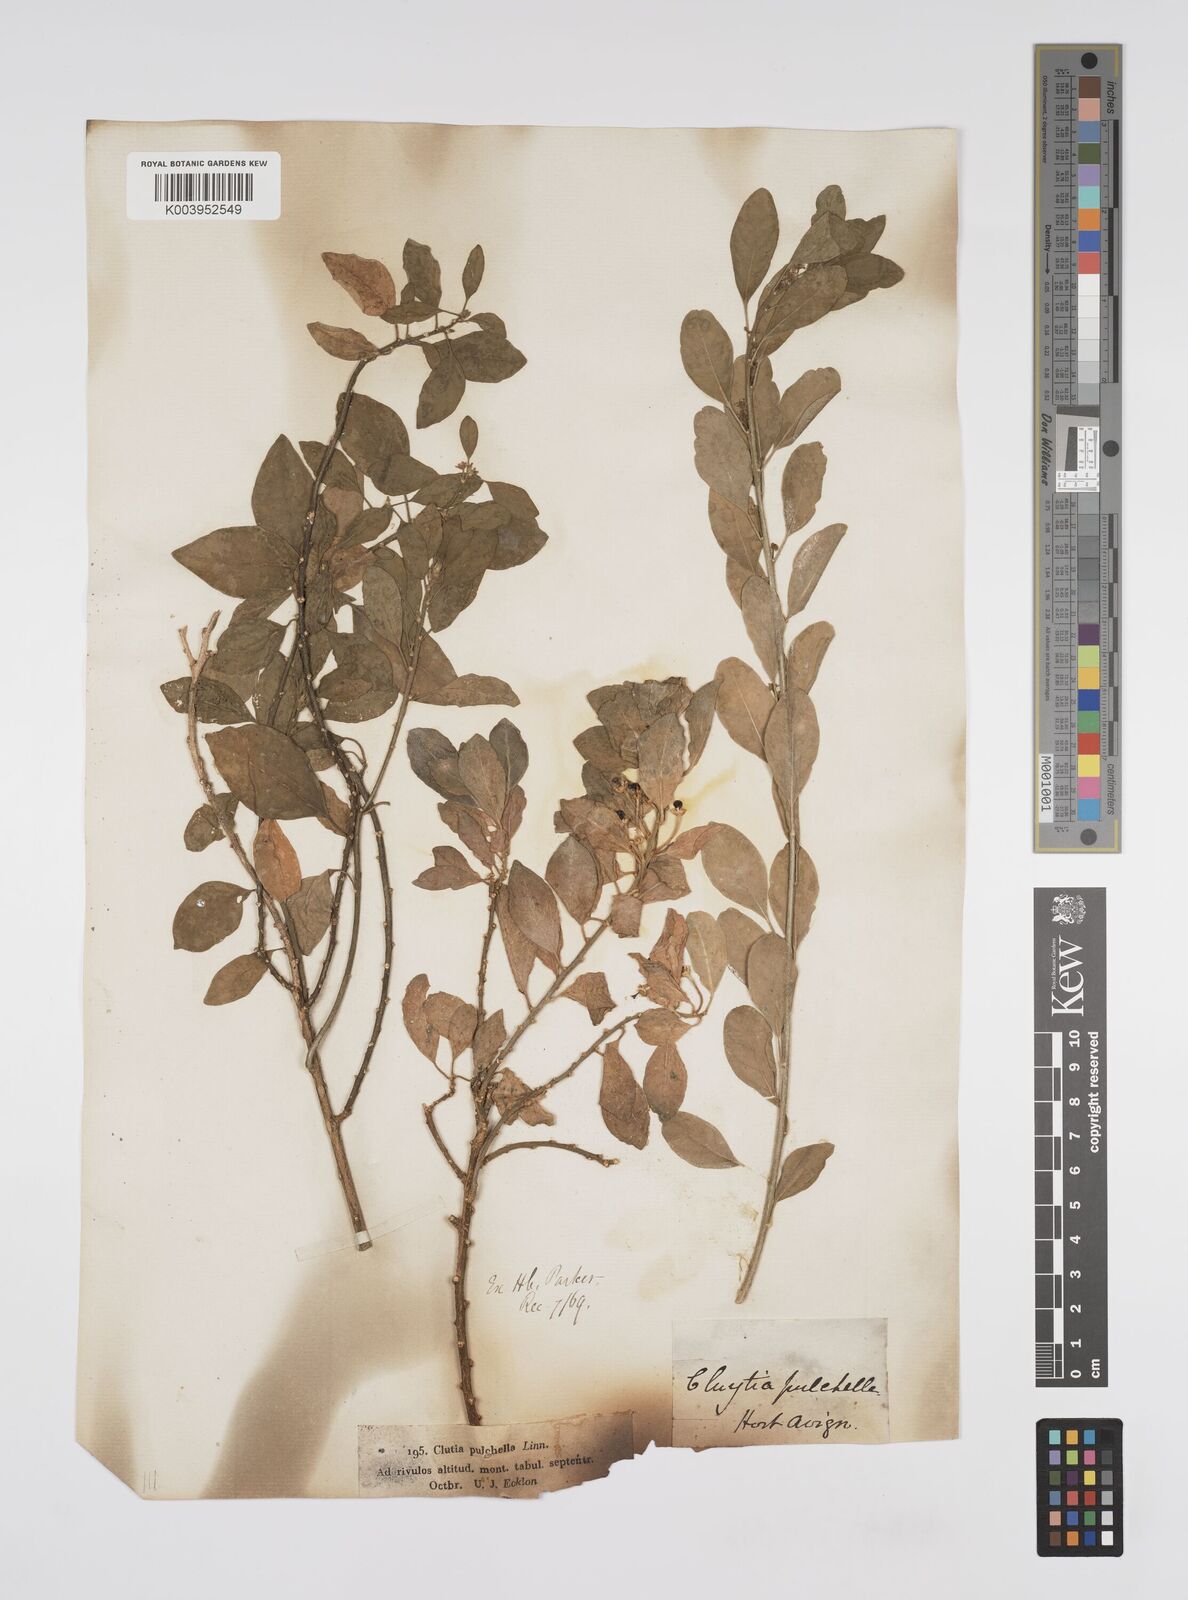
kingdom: Plantae
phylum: Tracheophyta
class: Magnoliopsida
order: Malpighiales
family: Peraceae
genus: Clutia
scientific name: Clutia pulchella
